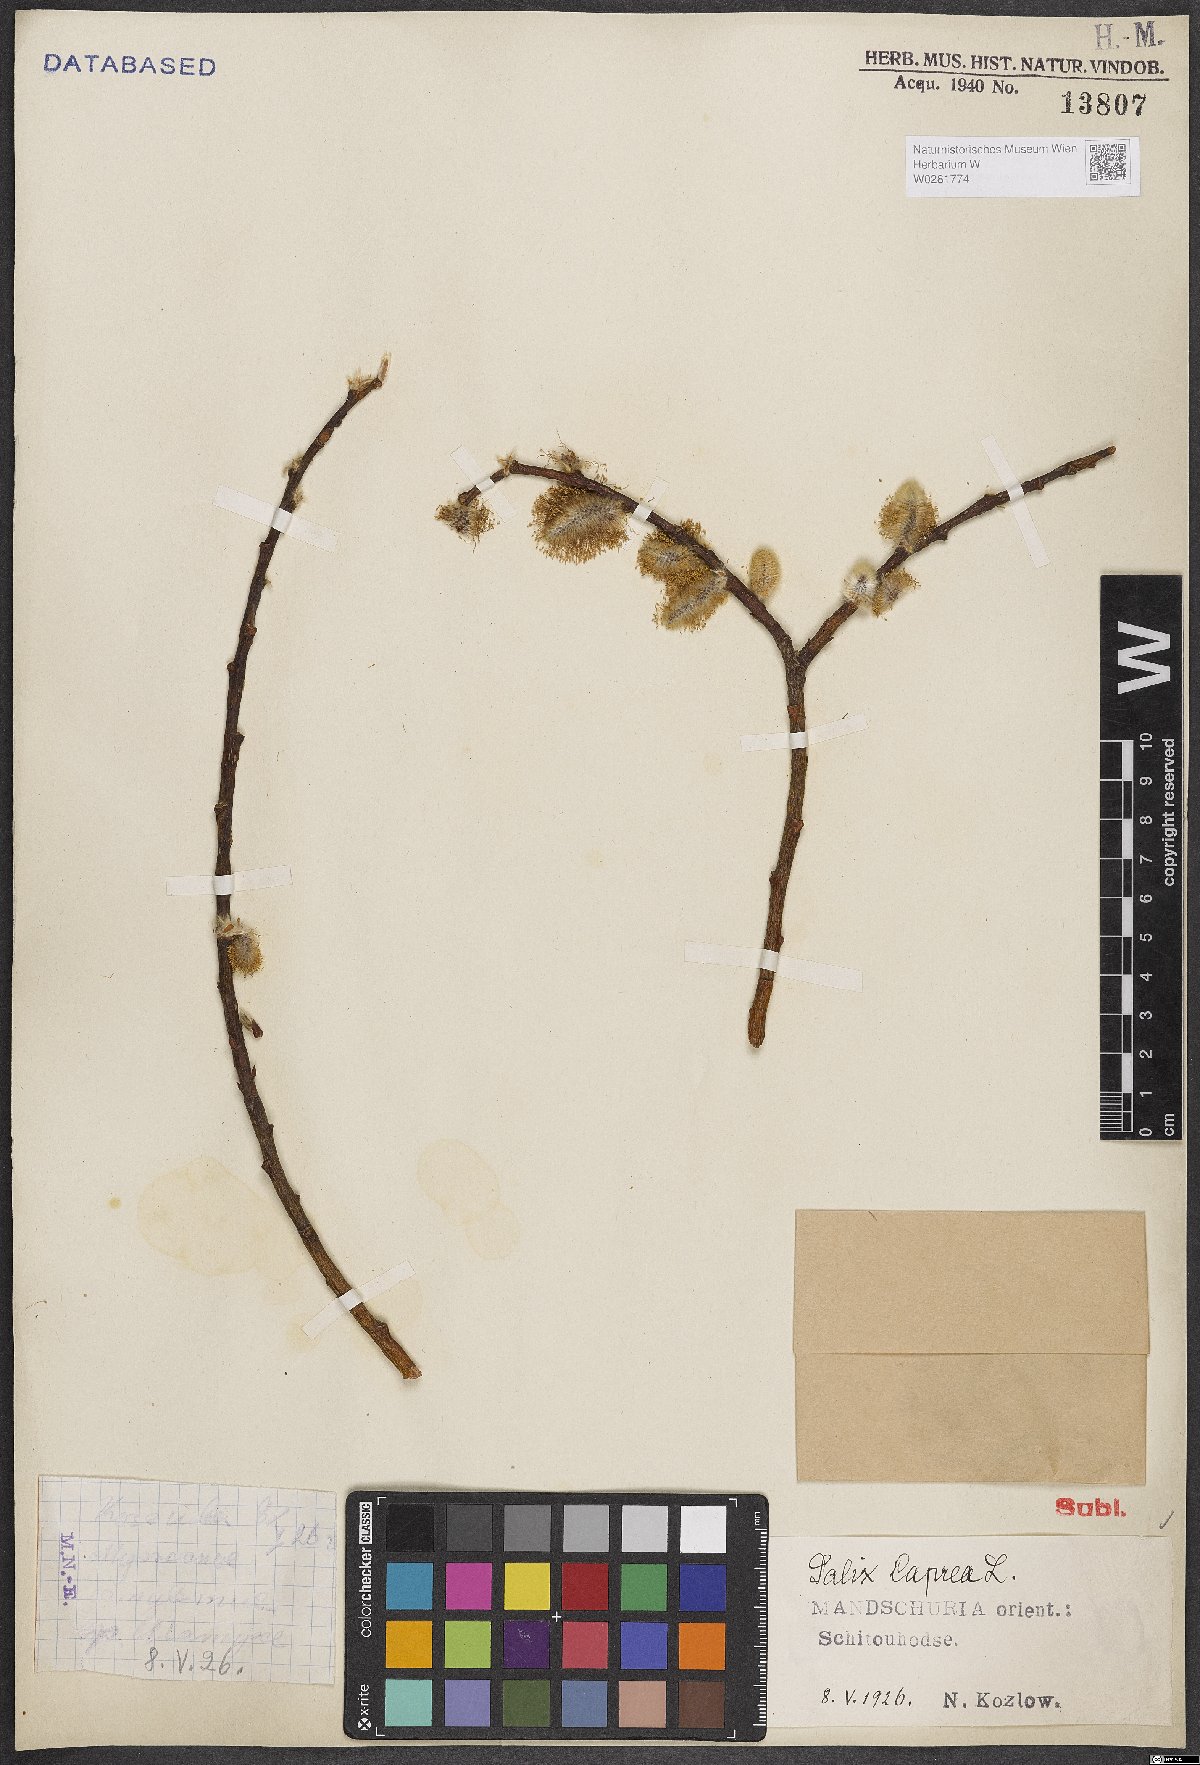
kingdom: Plantae
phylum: Tracheophyta
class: Magnoliopsida
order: Malpighiales
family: Salicaceae
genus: Salix
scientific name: Salix caprea
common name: Goat willow
